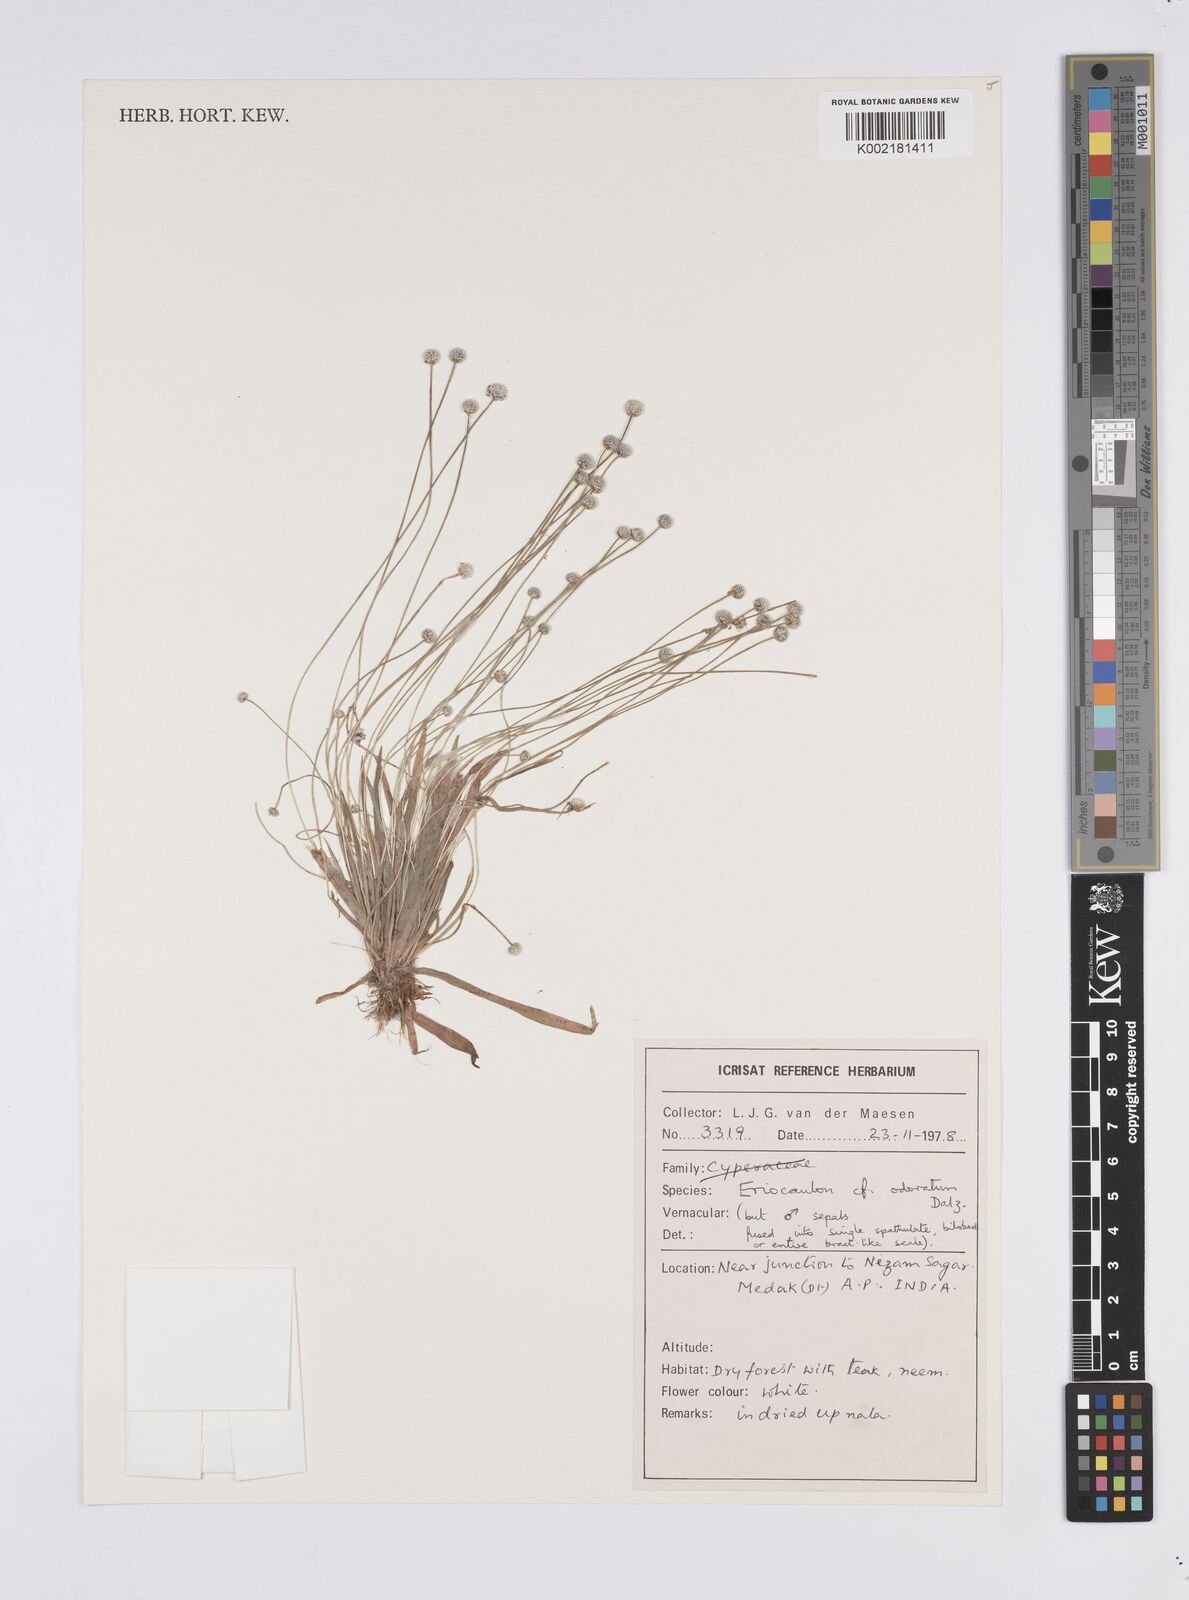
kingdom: Plantae
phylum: Tracheophyta
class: Liliopsida
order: Poales
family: Eriocaulaceae
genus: Eriocaulon
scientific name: Eriocaulon odoratum
